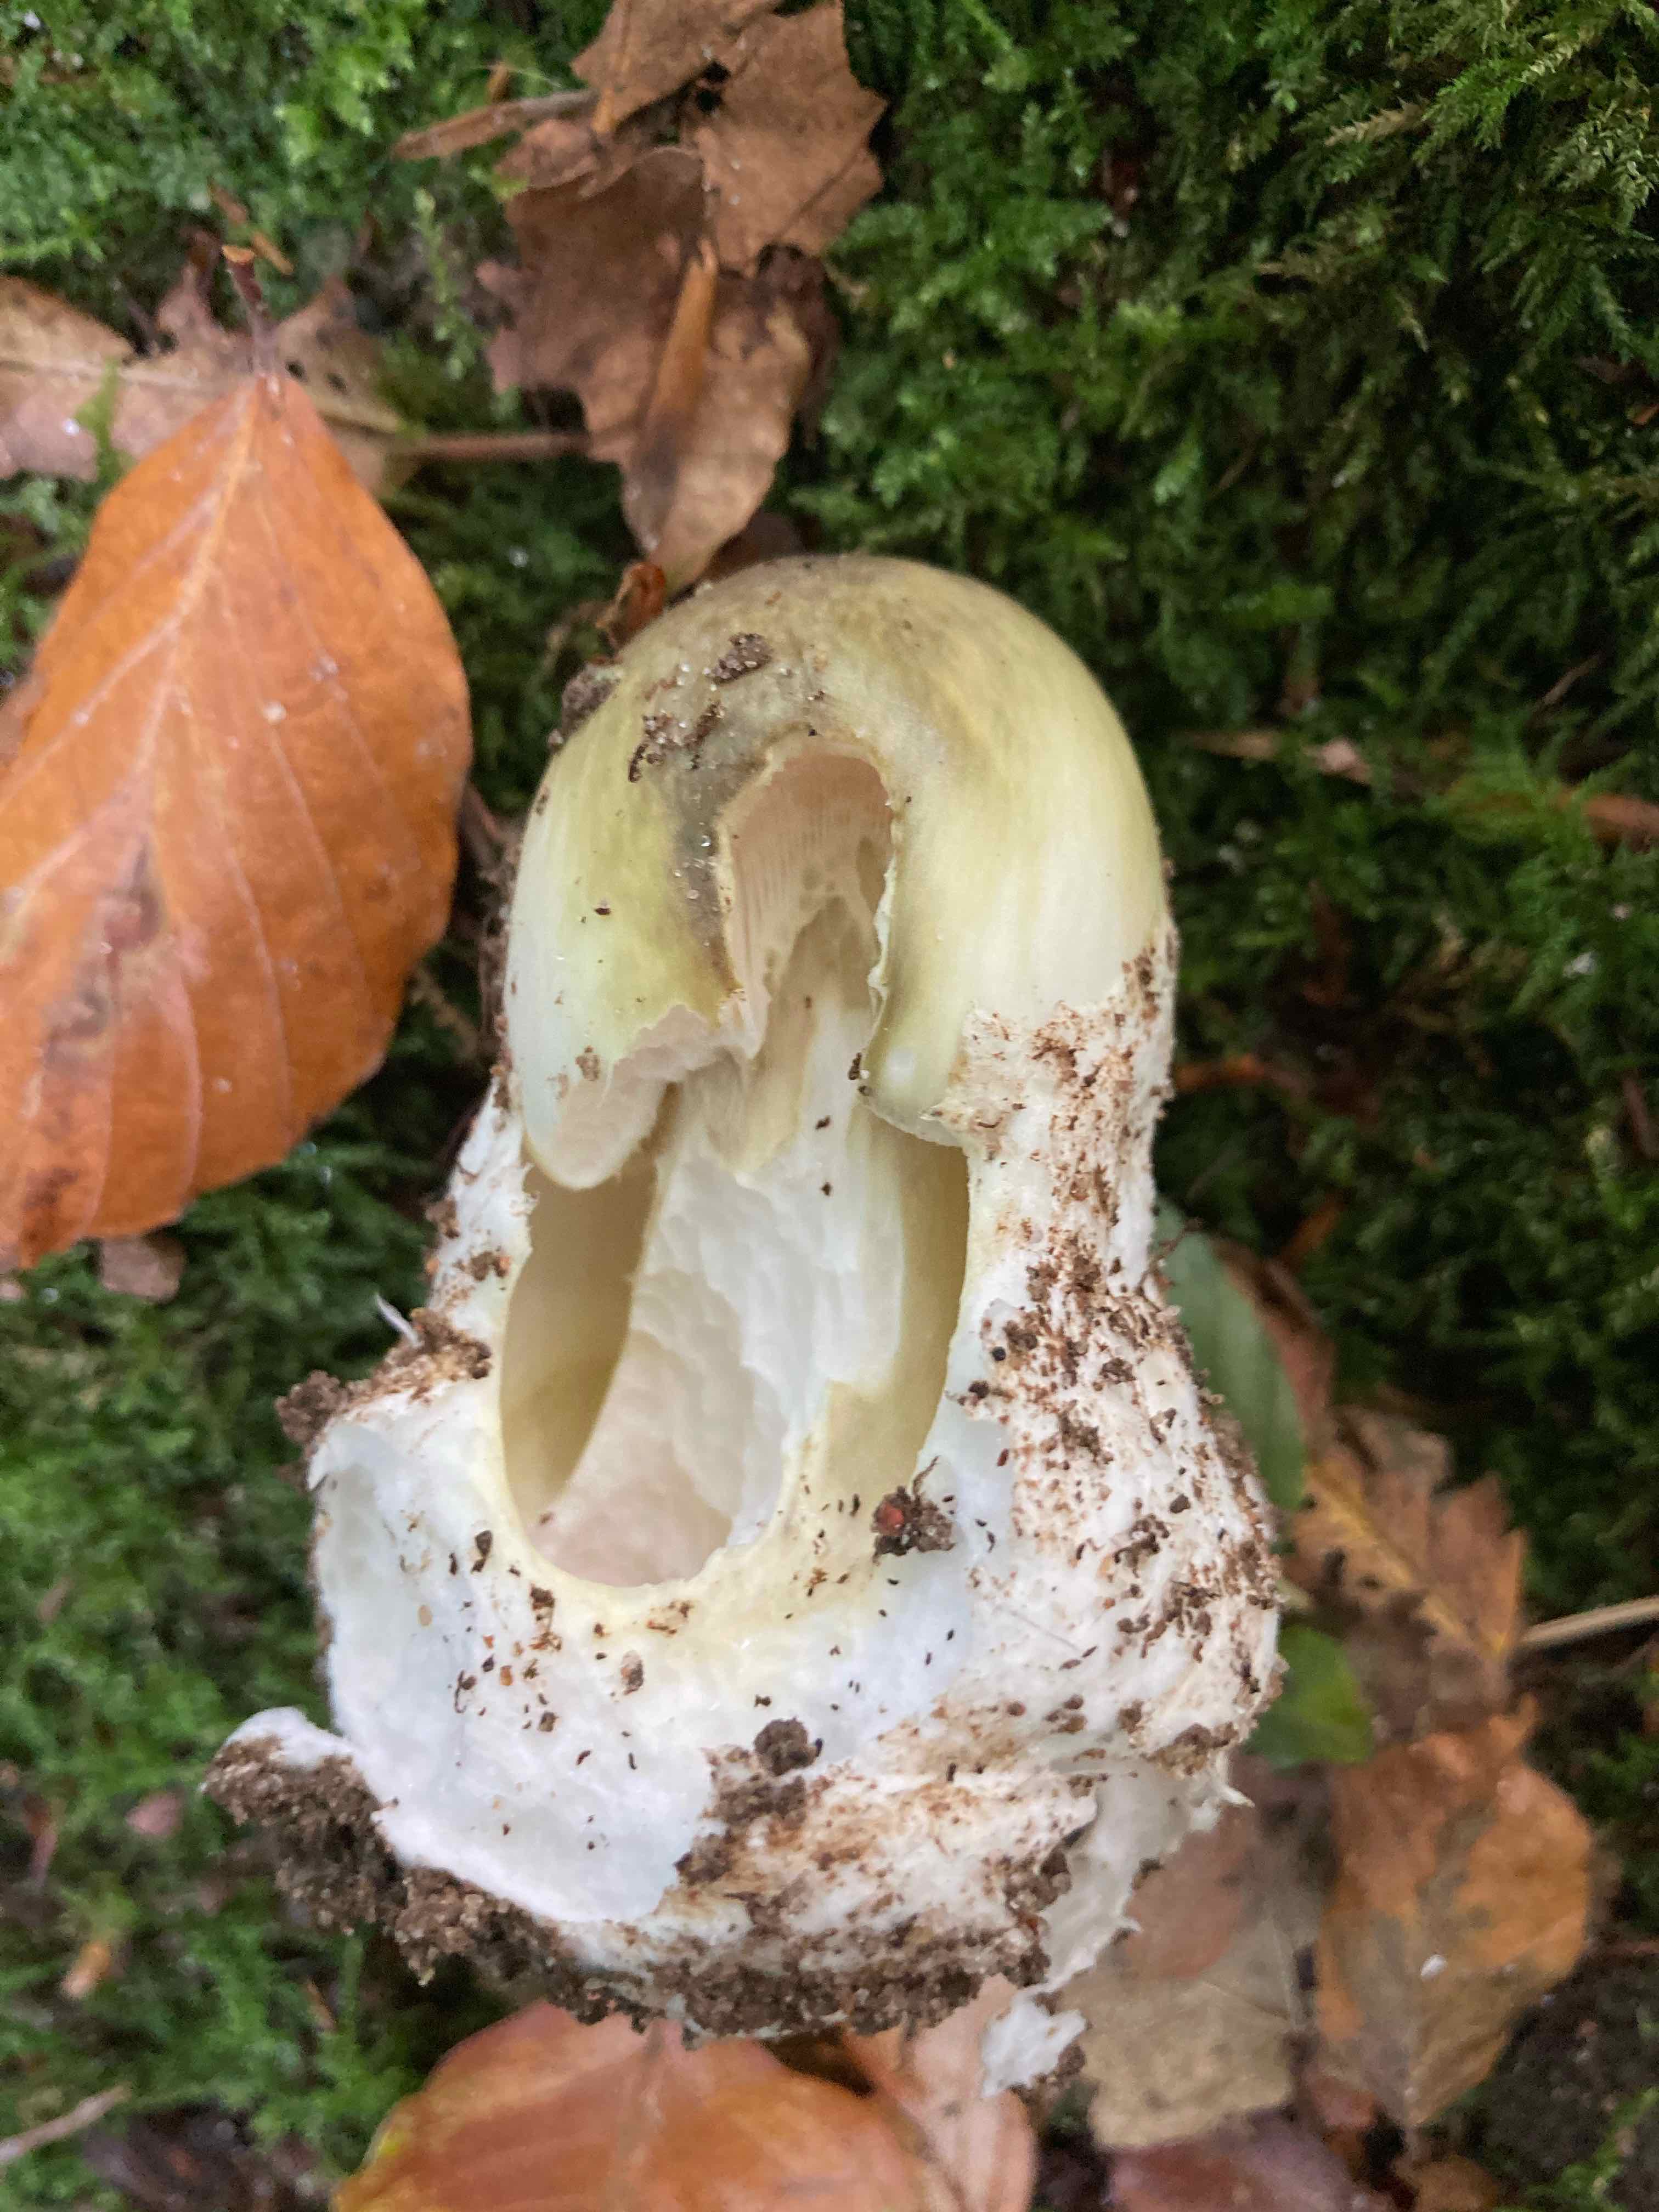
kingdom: Fungi
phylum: Basidiomycota
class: Agaricomycetes
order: Agaricales
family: Amanitaceae
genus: Amanita
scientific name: Amanita phalloides
